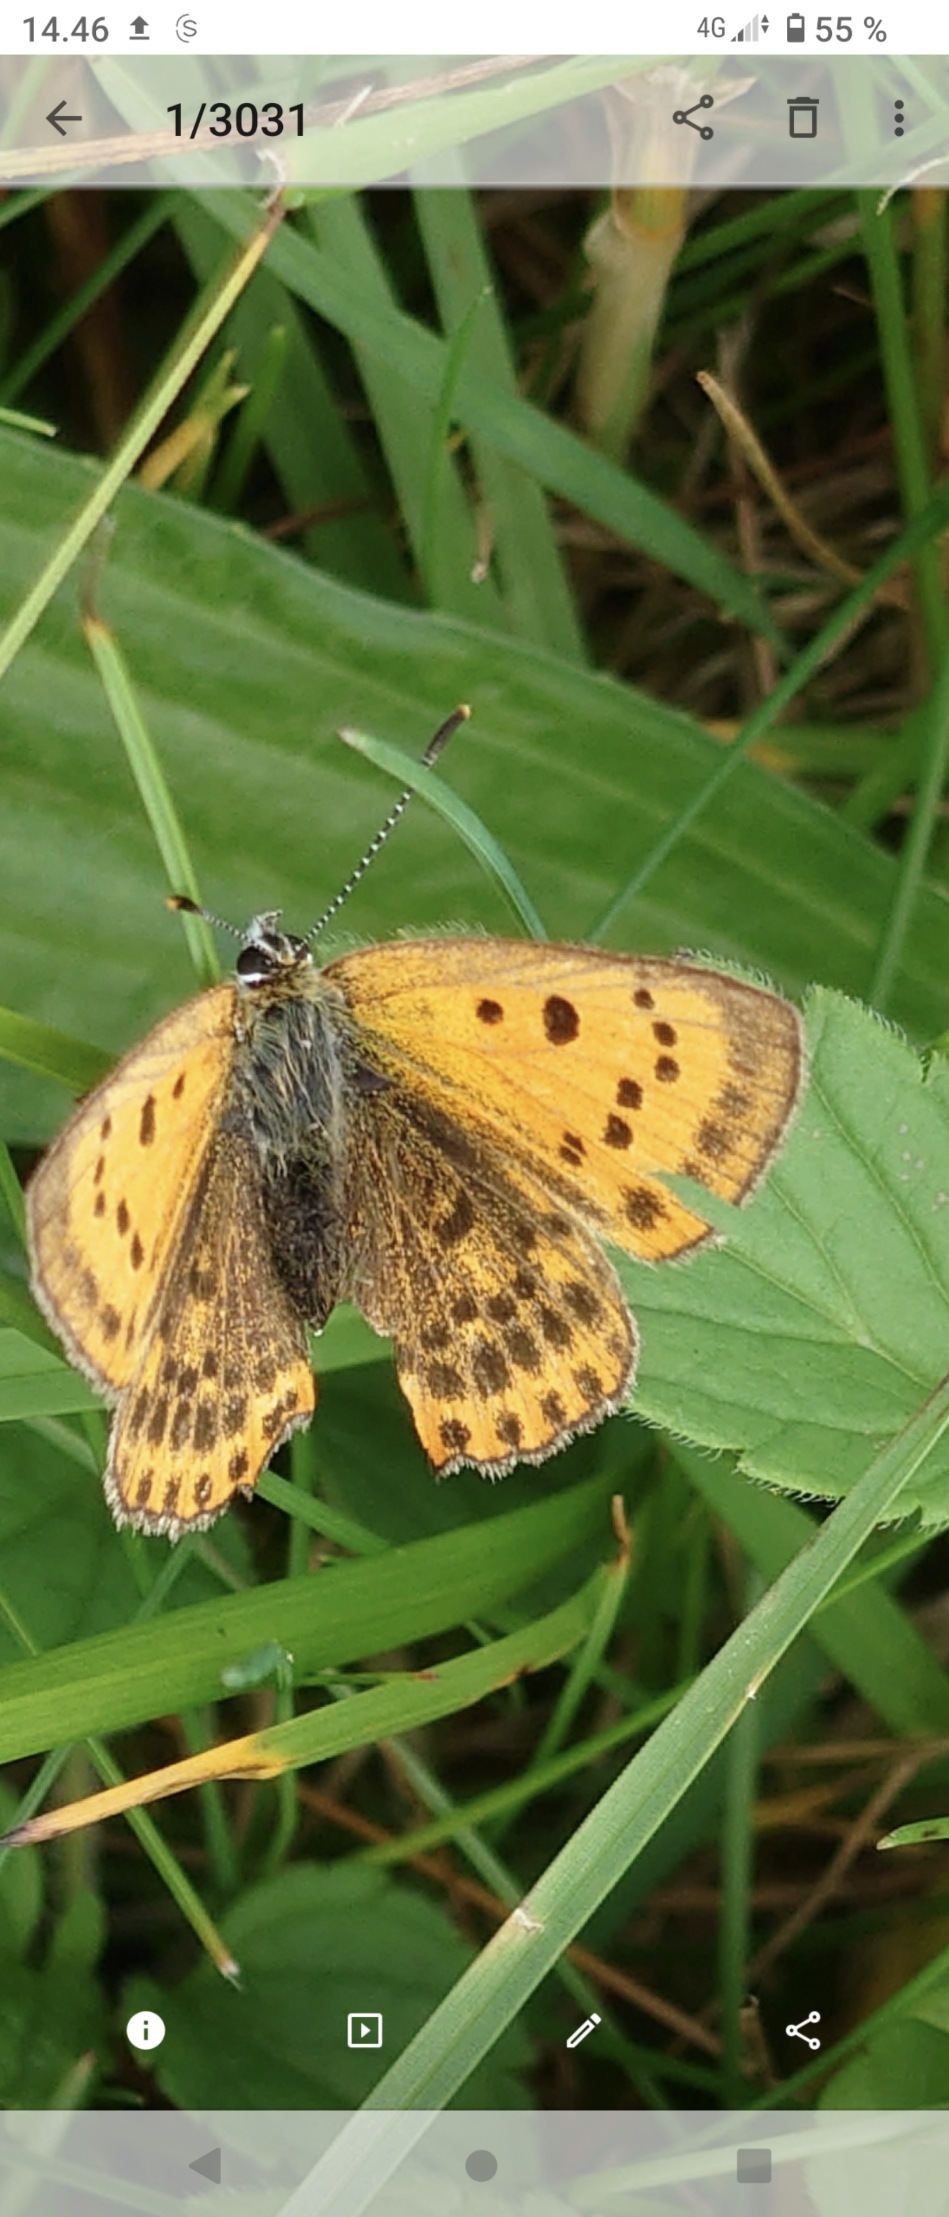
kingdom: Animalia
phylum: Arthropoda
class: Insecta
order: Lepidoptera
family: Lycaenidae
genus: Lycaena
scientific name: Lycaena virgaureae
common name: Dukatsommerfugl
